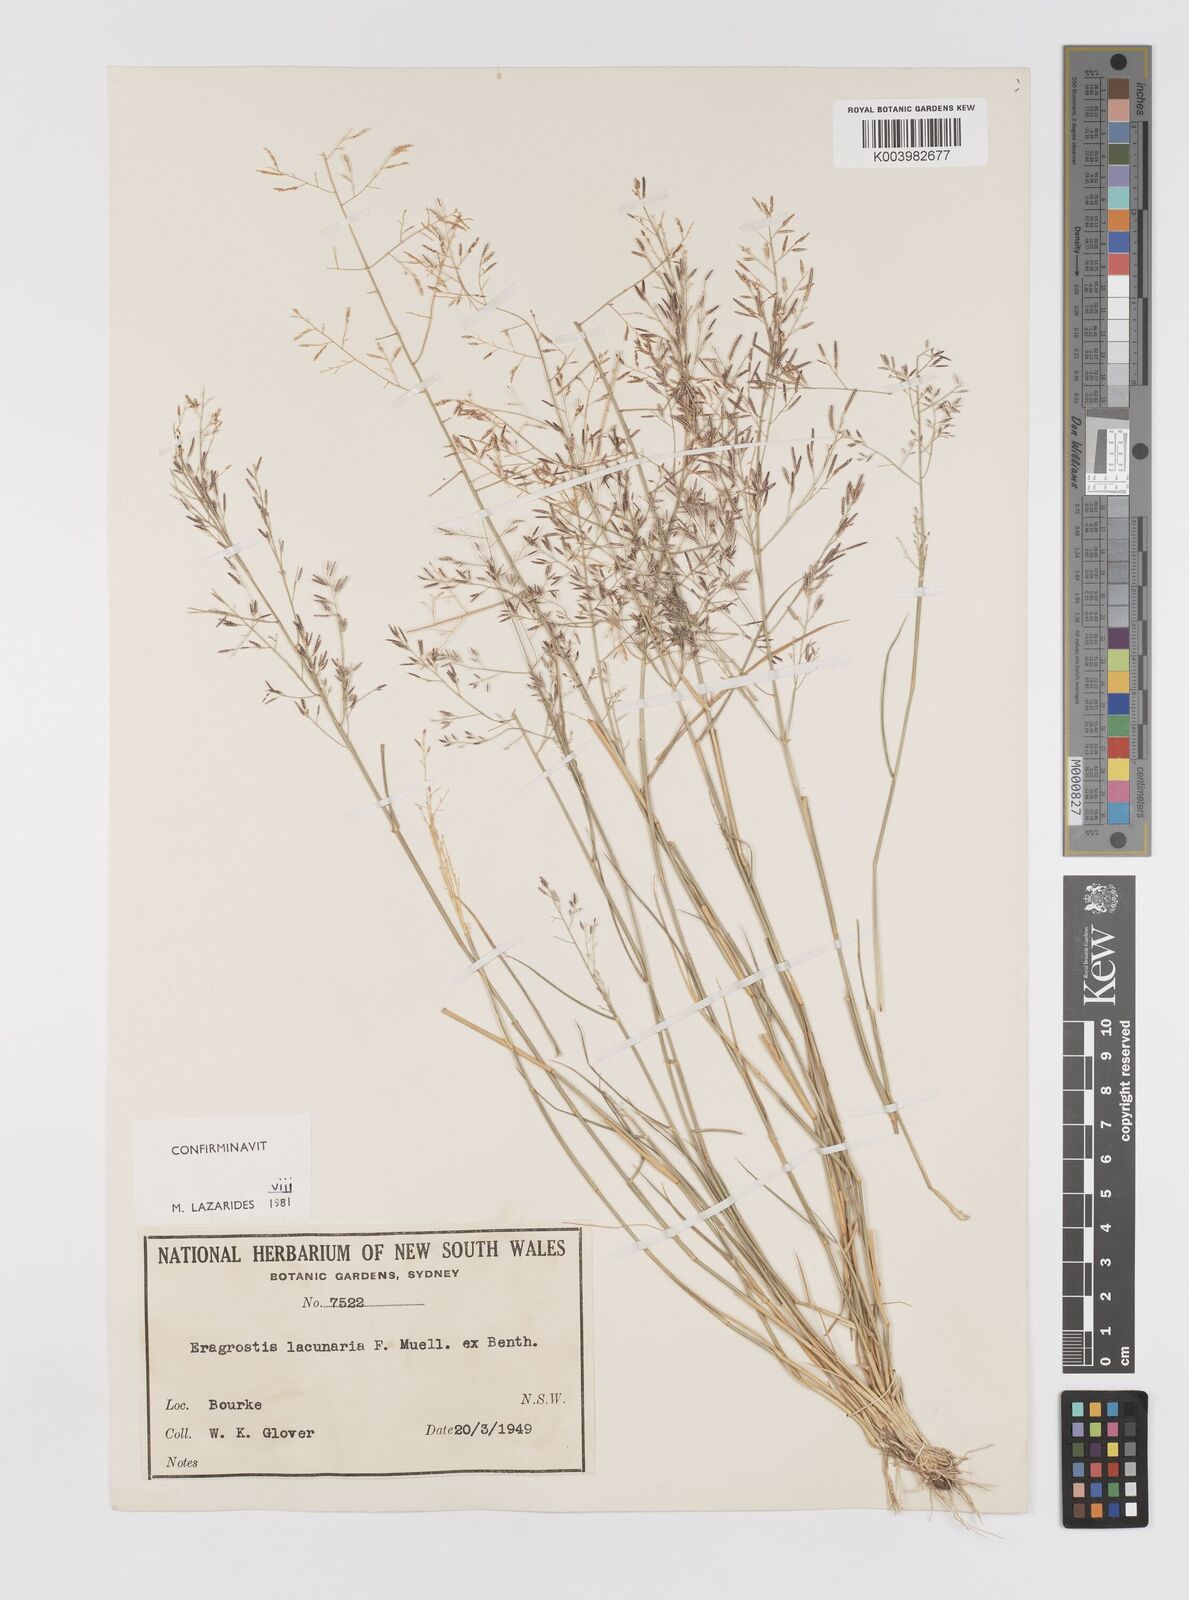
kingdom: Plantae
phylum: Tracheophyta
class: Liliopsida
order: Poales
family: Poaceae
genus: Eragrostis
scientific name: Eragrostis lacunaria
